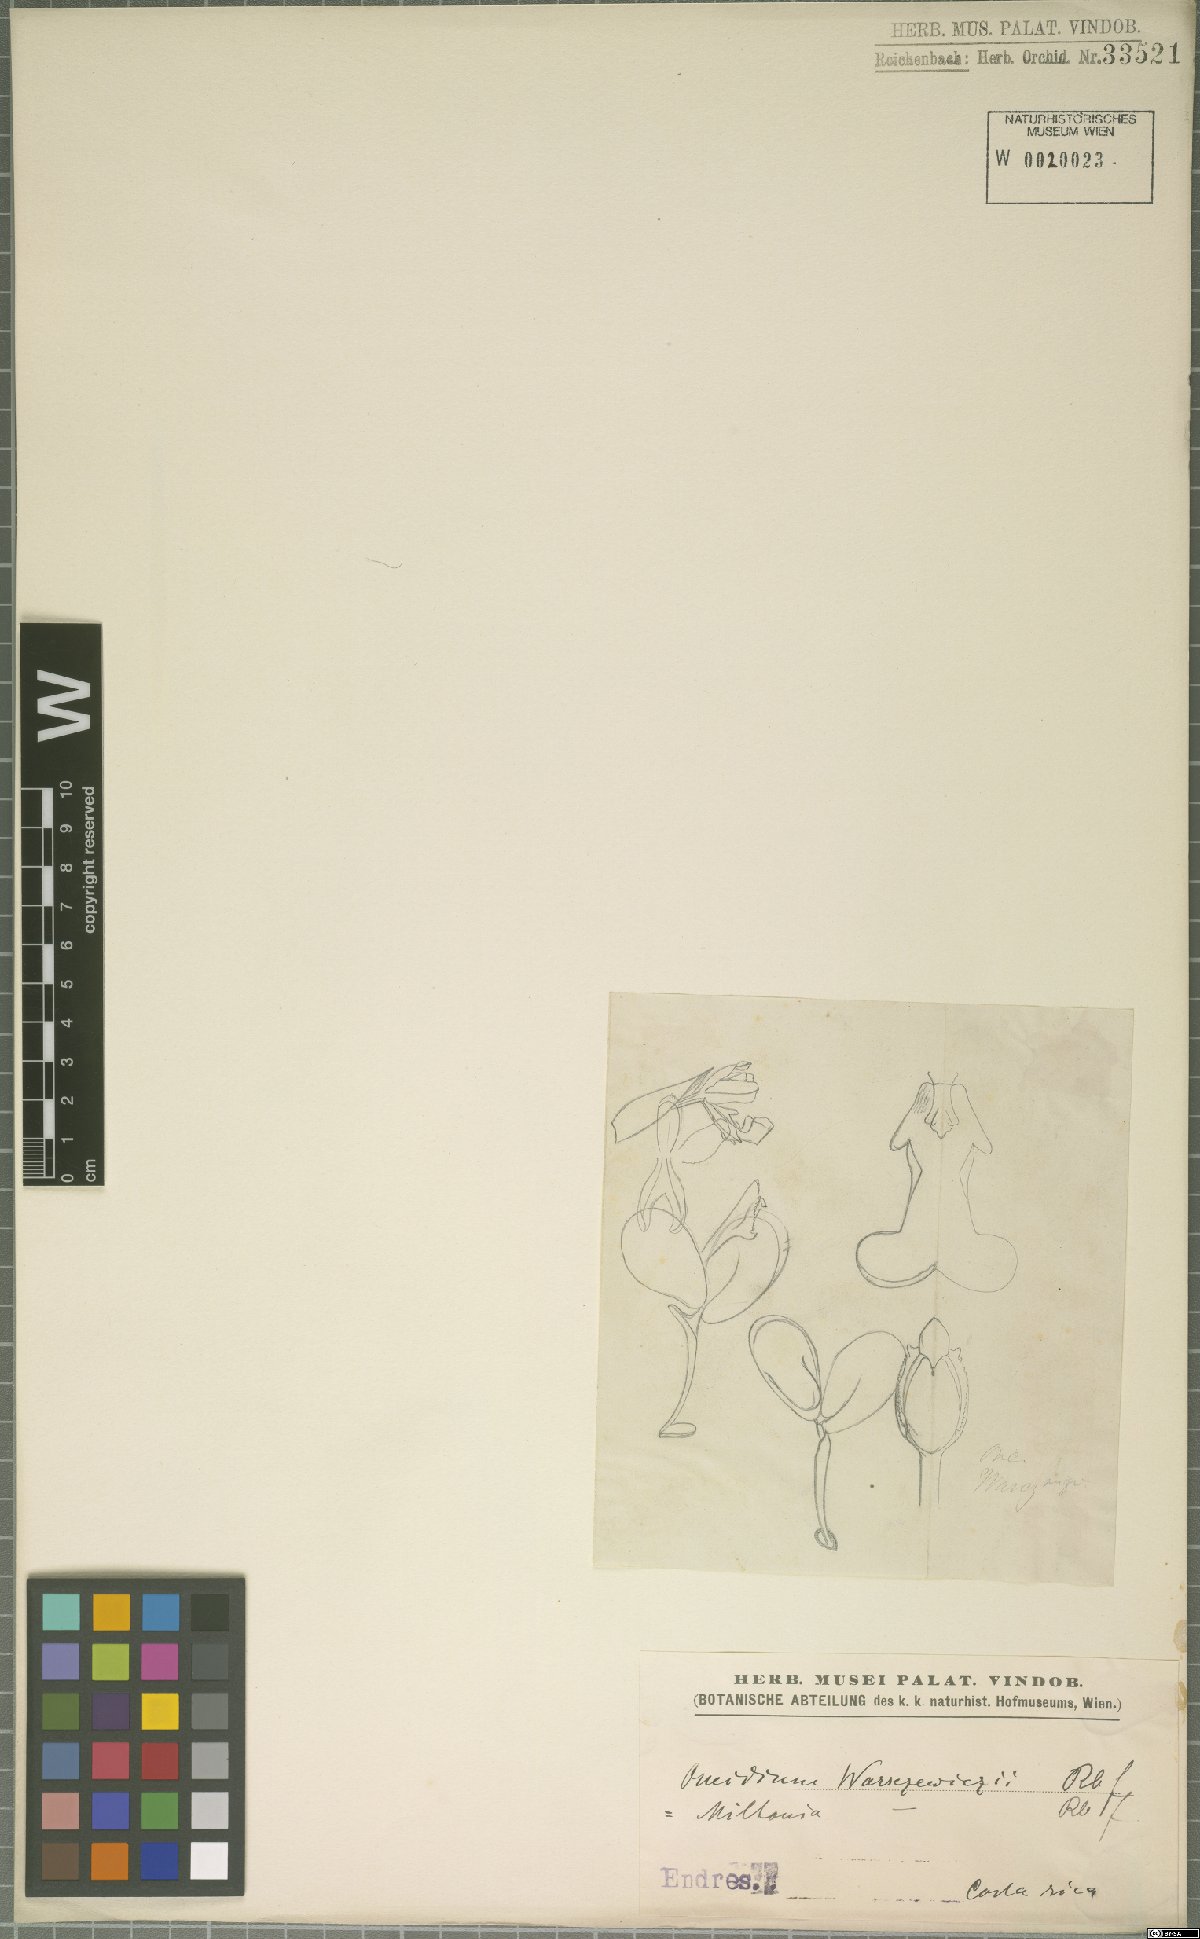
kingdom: Plantae
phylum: Tracheophyta
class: Liliopsida
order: Asparagales
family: Orchidaceae
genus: Oncidium
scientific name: Oncidium warszewiczii
